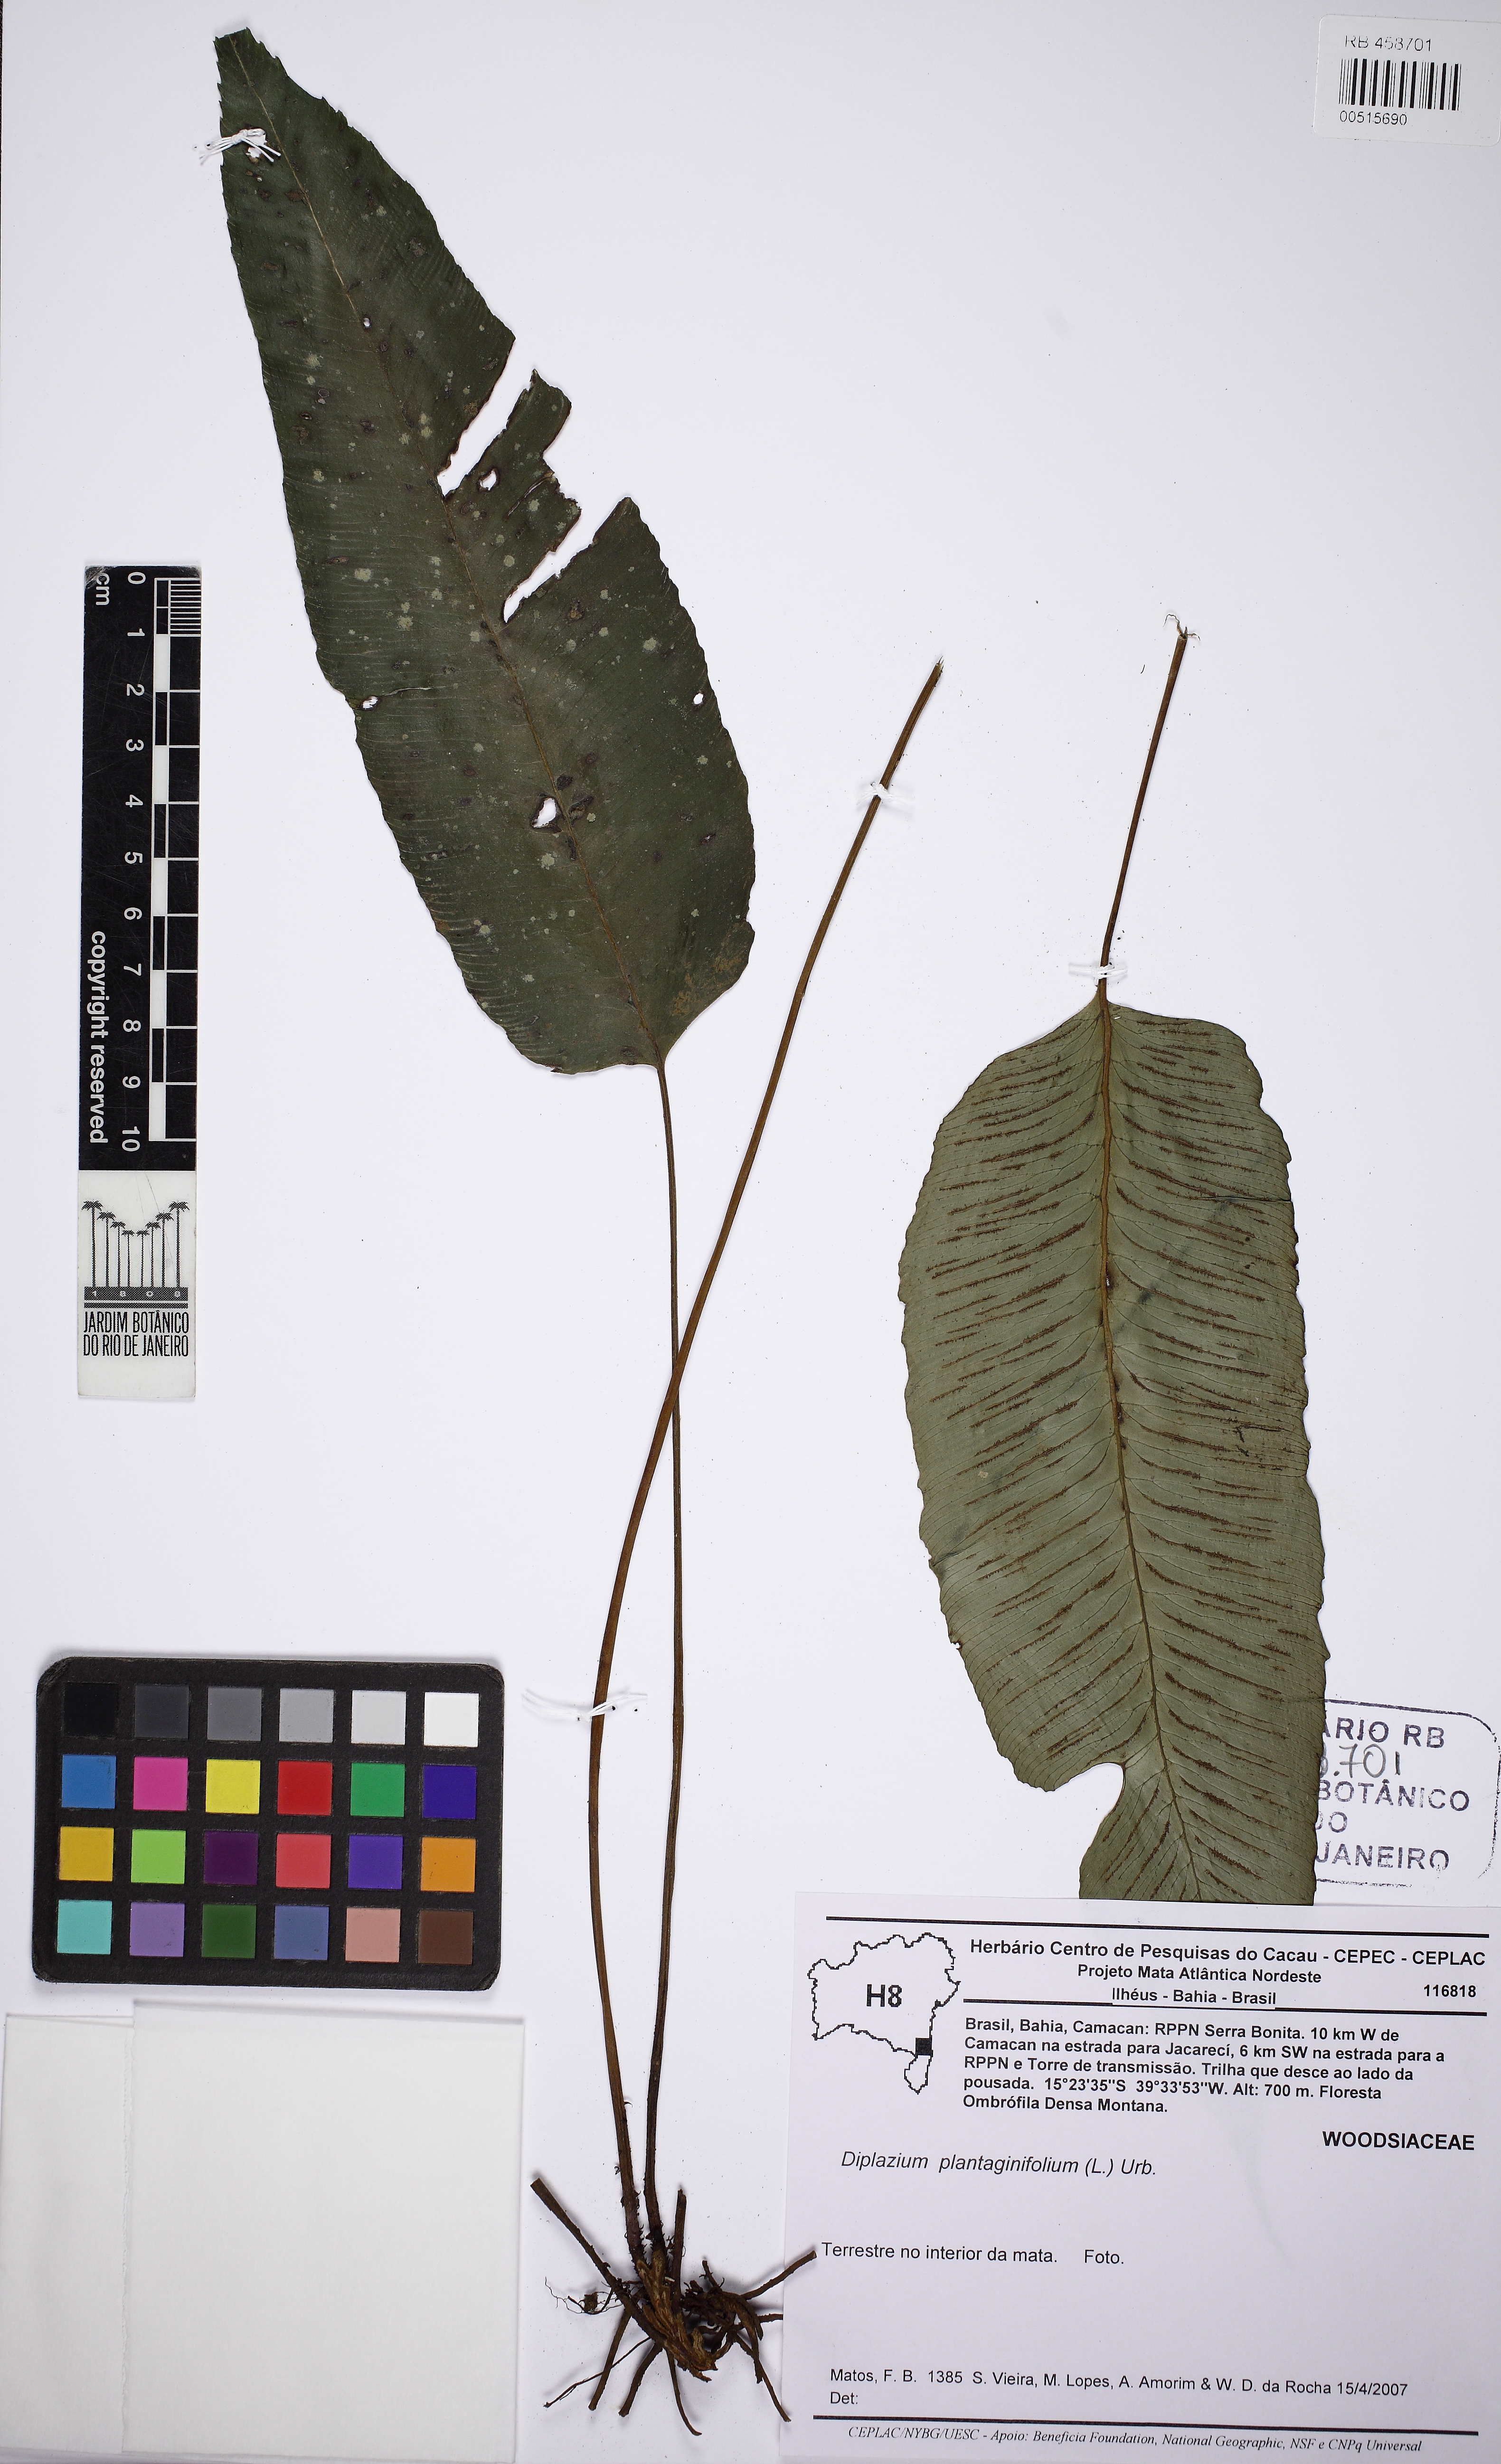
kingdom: Plantae
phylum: Tracheophyta
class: Polypodiopsida
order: Polypodiales
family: Athyriaceae
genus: Diplazium
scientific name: Diplazium plantaginifolium
